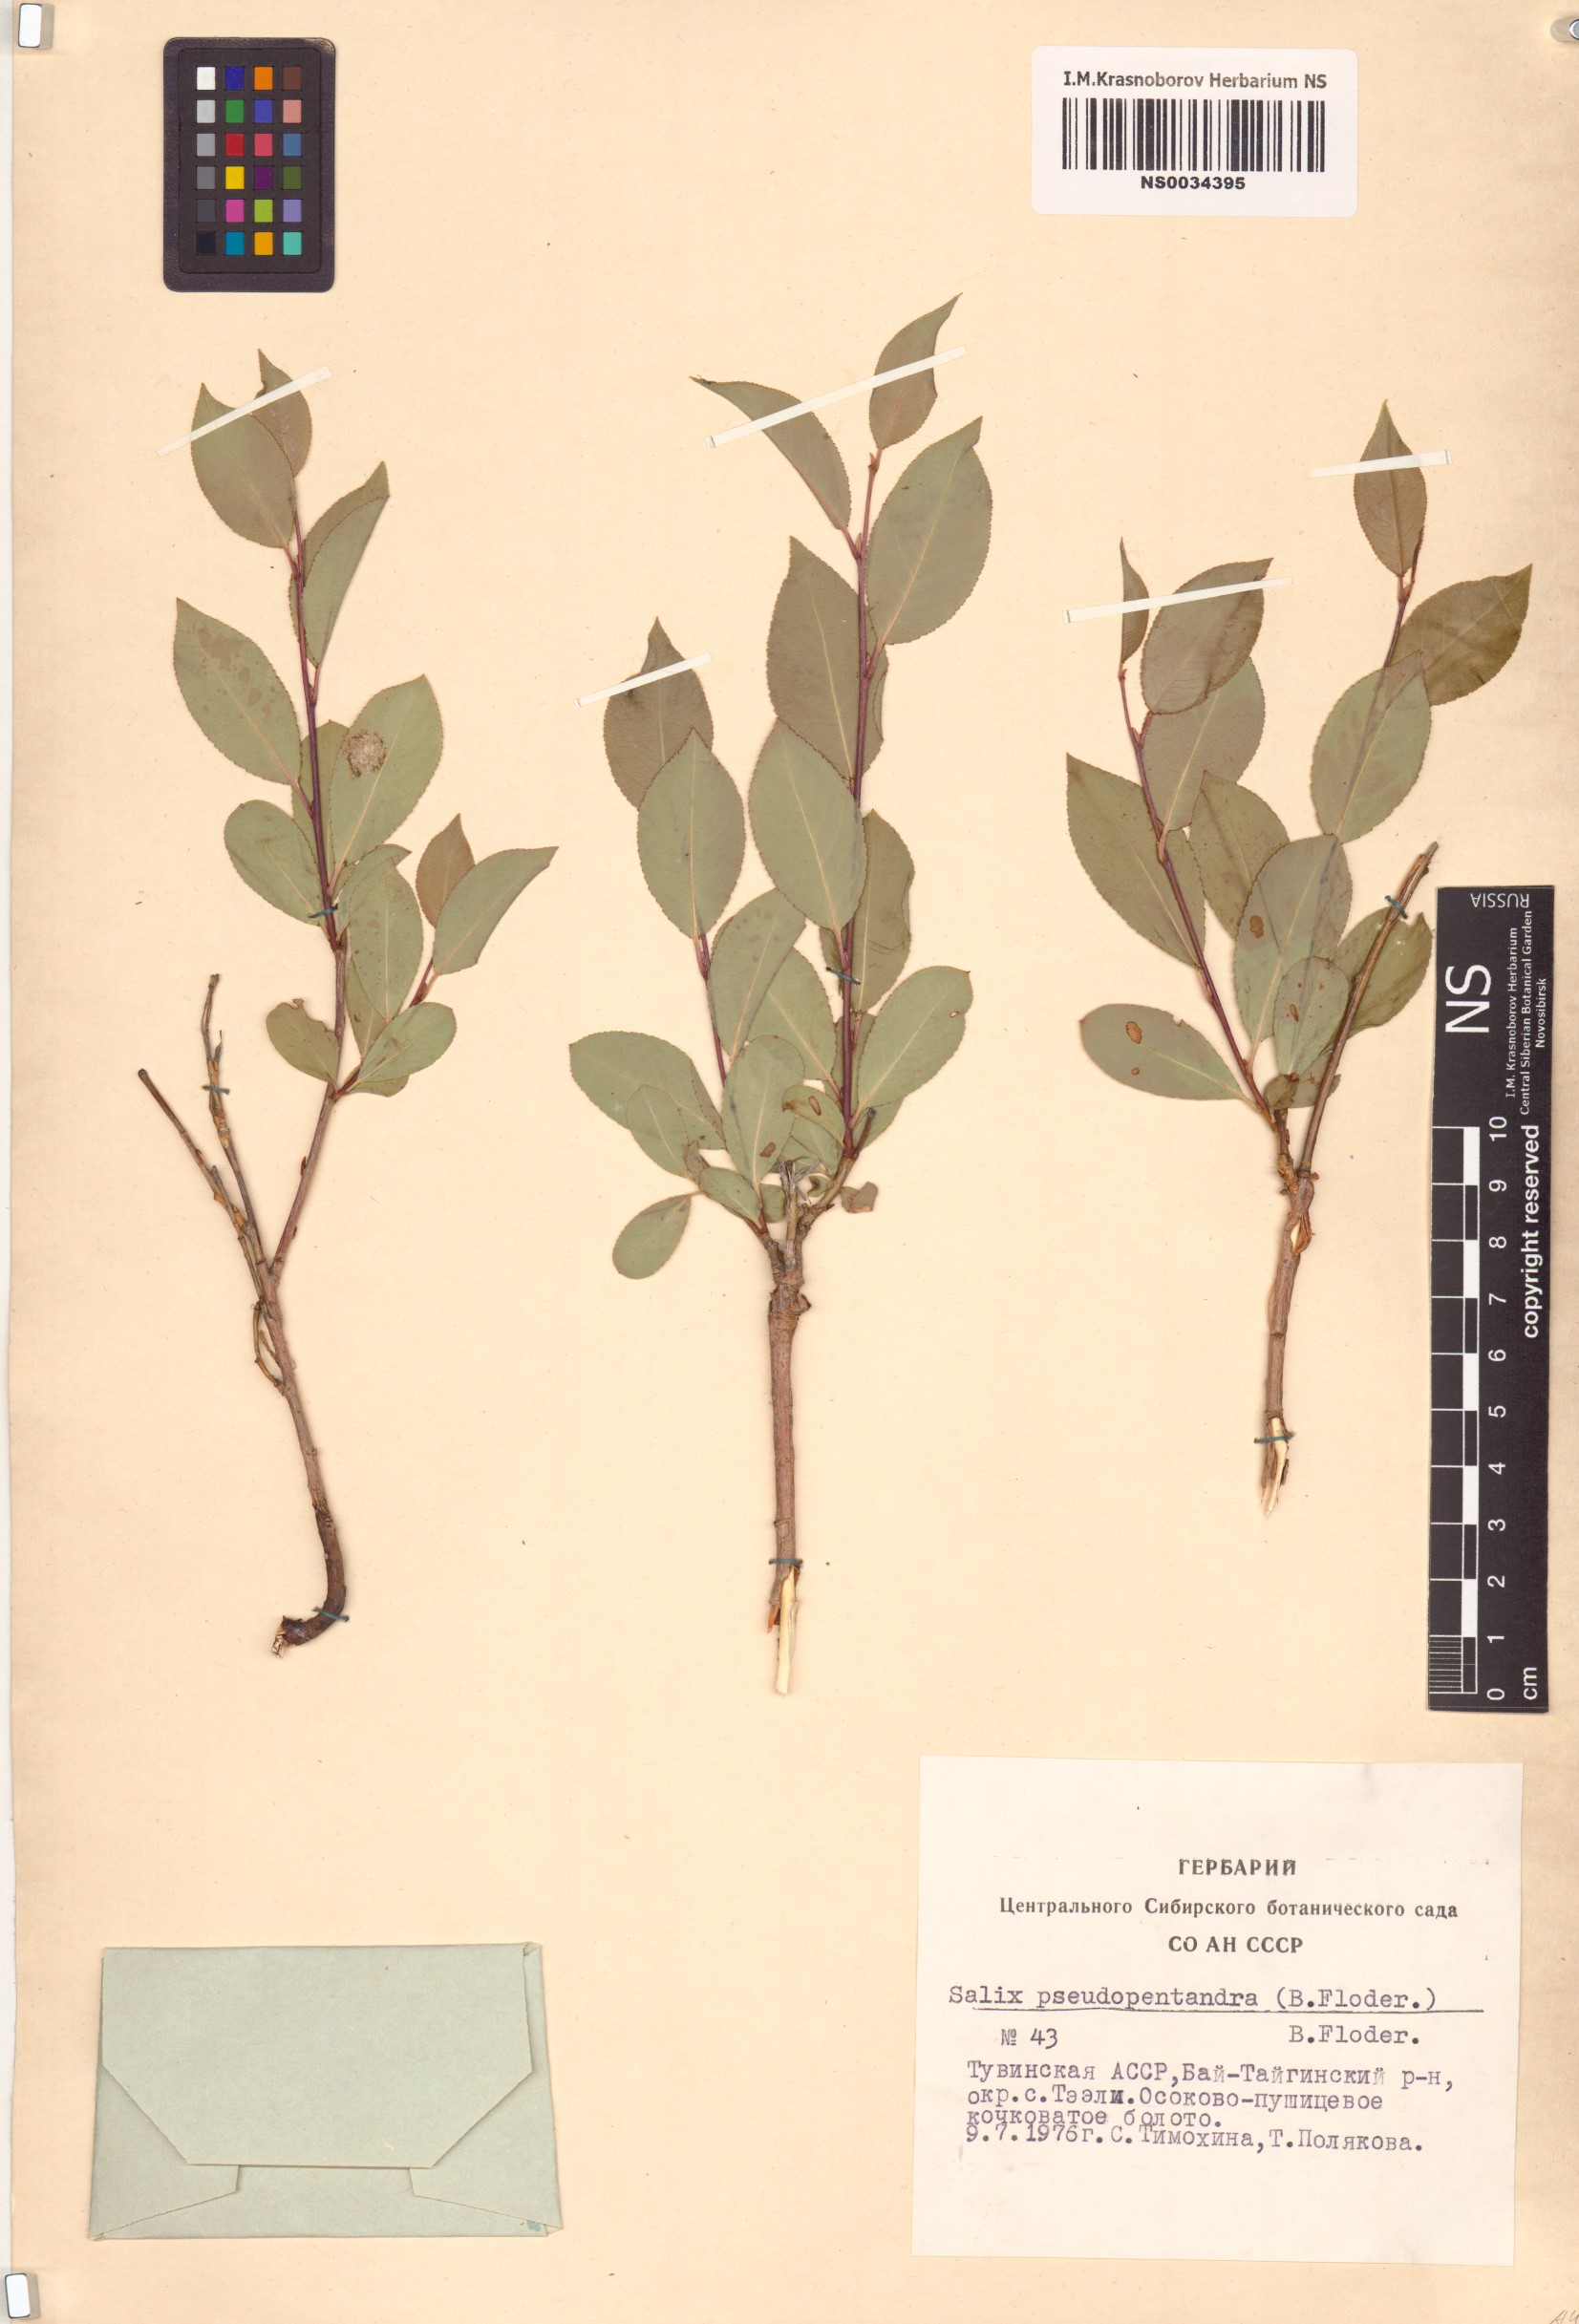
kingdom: Plantae
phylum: Tracheophyta
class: Magnoliopsida
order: Malpighiales
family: Salicaceae
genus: Salix
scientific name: Salix pseudopentandra
